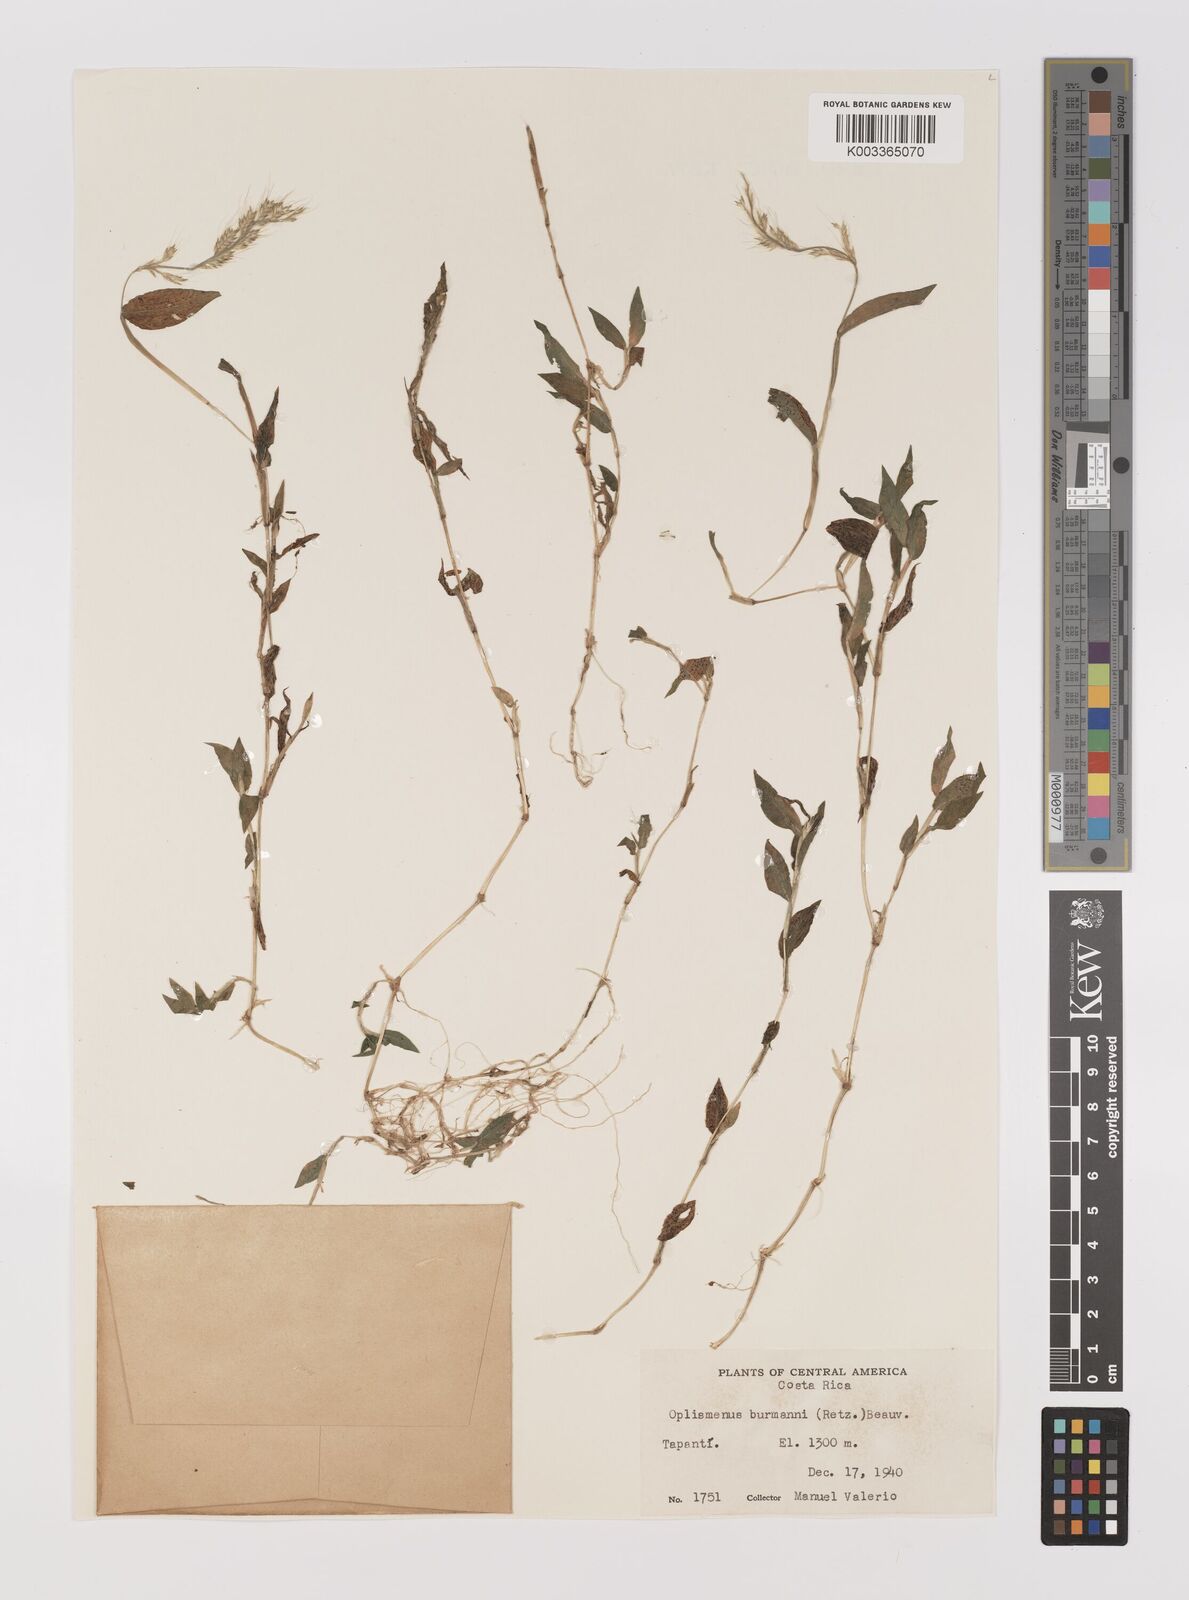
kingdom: Plantae
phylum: Tracheophyta
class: Liliopsida
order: Poales
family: Poaceae
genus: Oplismenus
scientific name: Oplismenus burmanni
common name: Burmann's basketgrass
